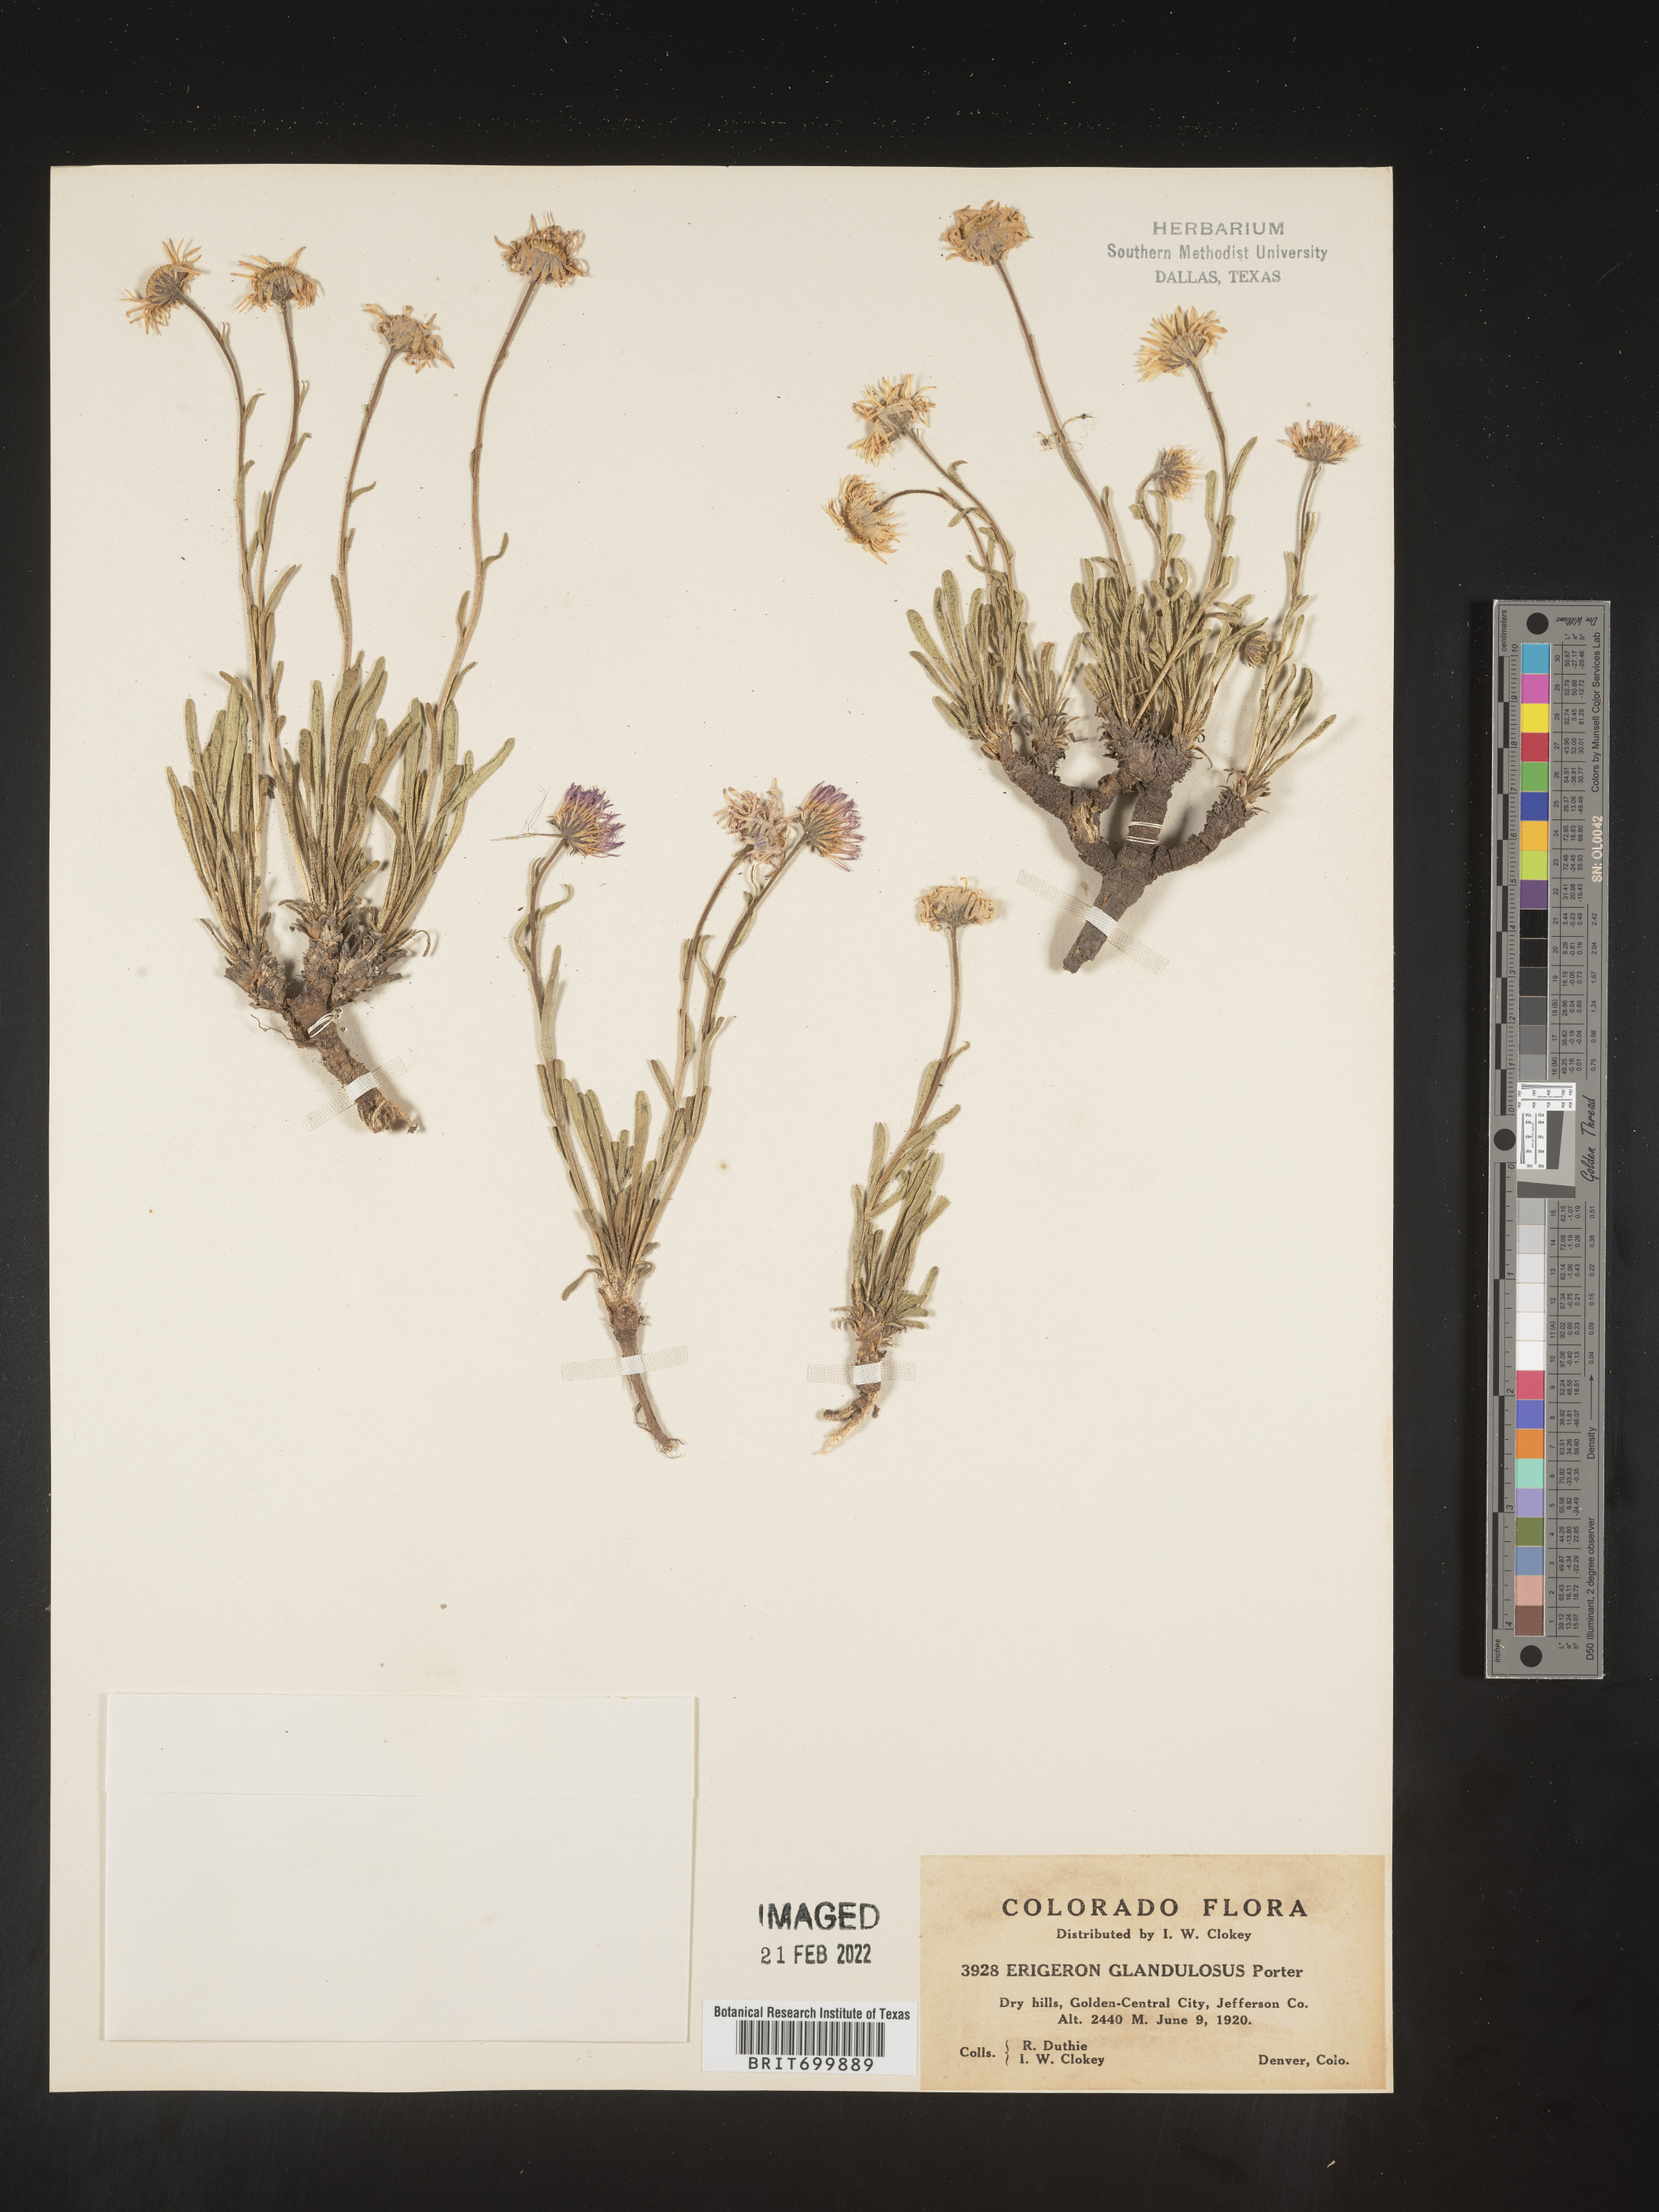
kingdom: Plantae
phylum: Tracheophyta
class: Magnoliopsida
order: Asterales
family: Asteraceae
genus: Erigeron
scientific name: Erigeron vetensis
